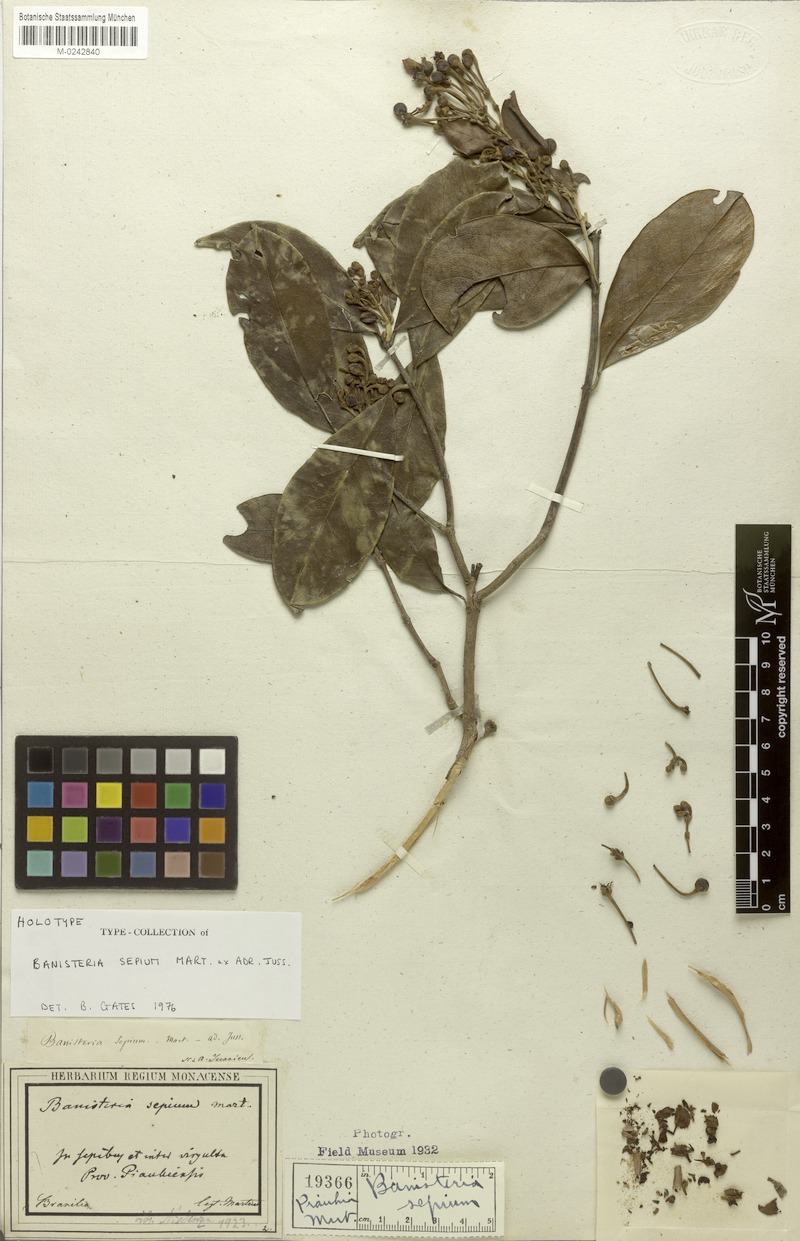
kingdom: Plantae
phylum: Tracheophyta
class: Magnoliopsida
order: Malpighiales
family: Malpighiaceae
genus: Diplopterys
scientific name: Diplopterys sepium
